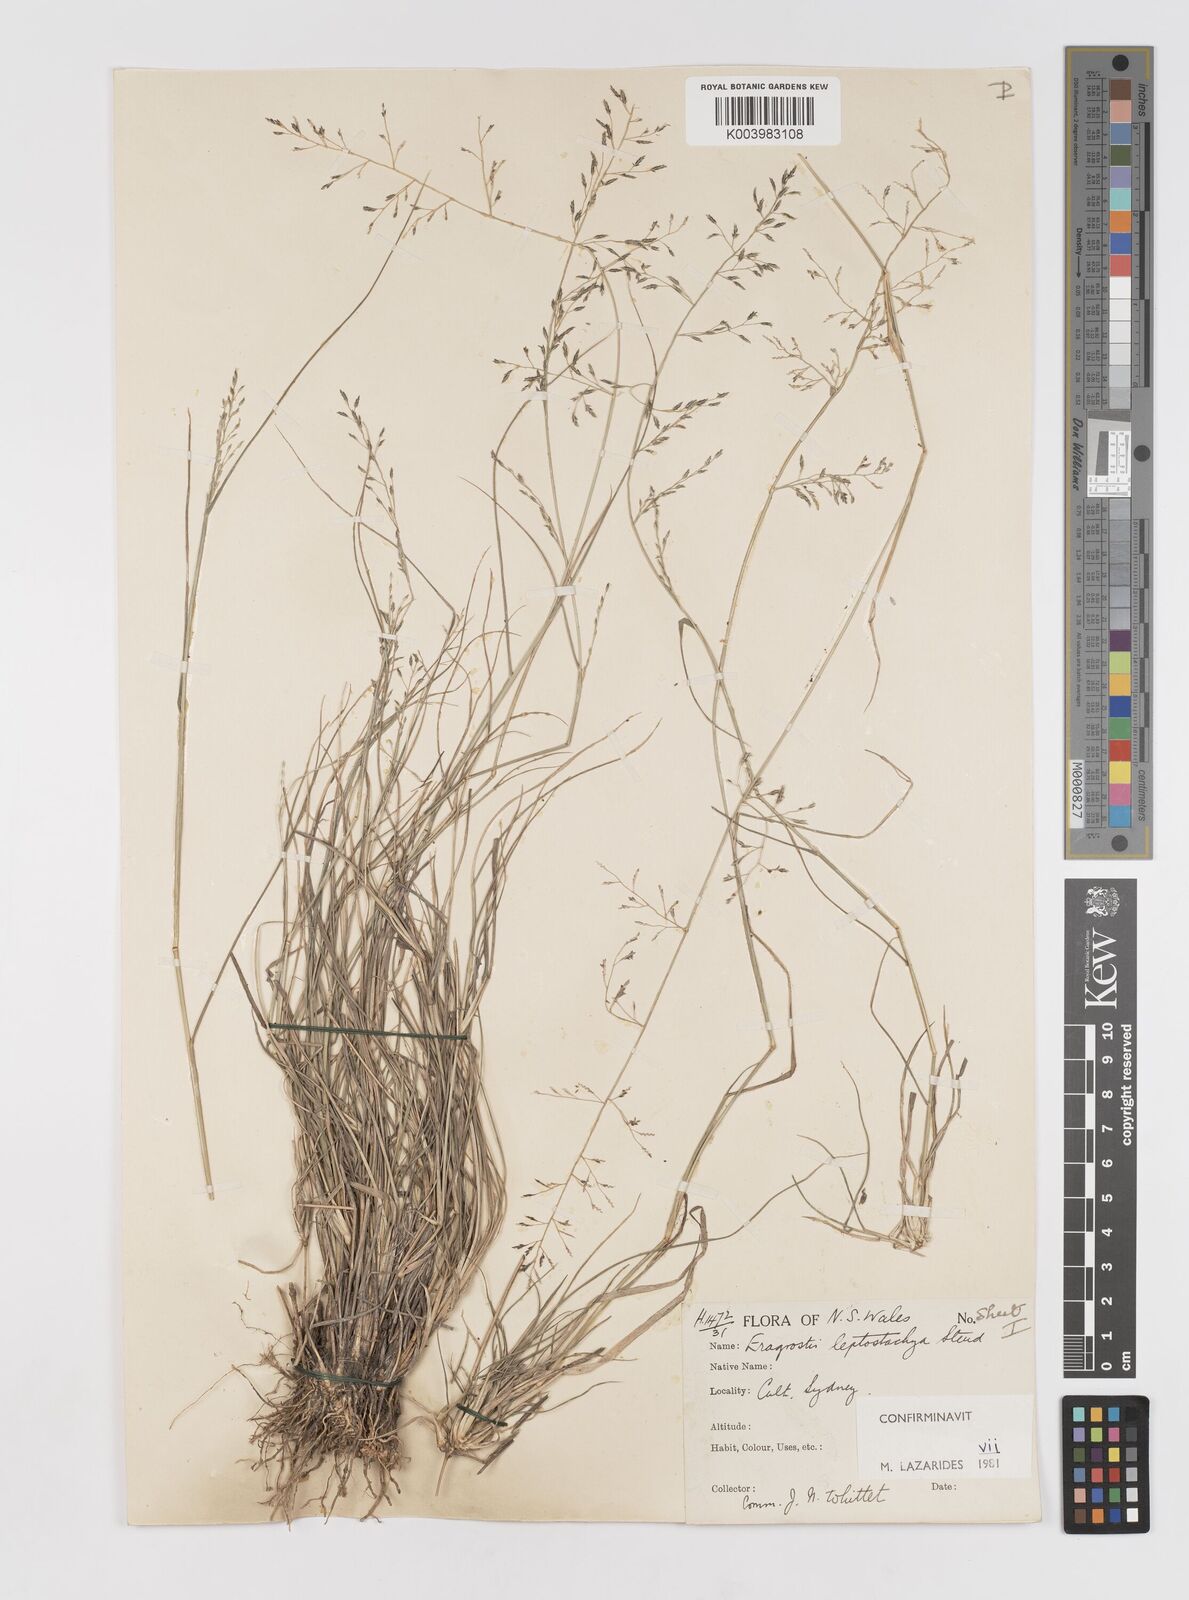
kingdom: Plantae
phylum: Tracheophyta
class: Liliopsida
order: Poales
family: Poaceae
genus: Eragrostis
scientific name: Eragrostis leptostachya
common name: Australian lovegrass
